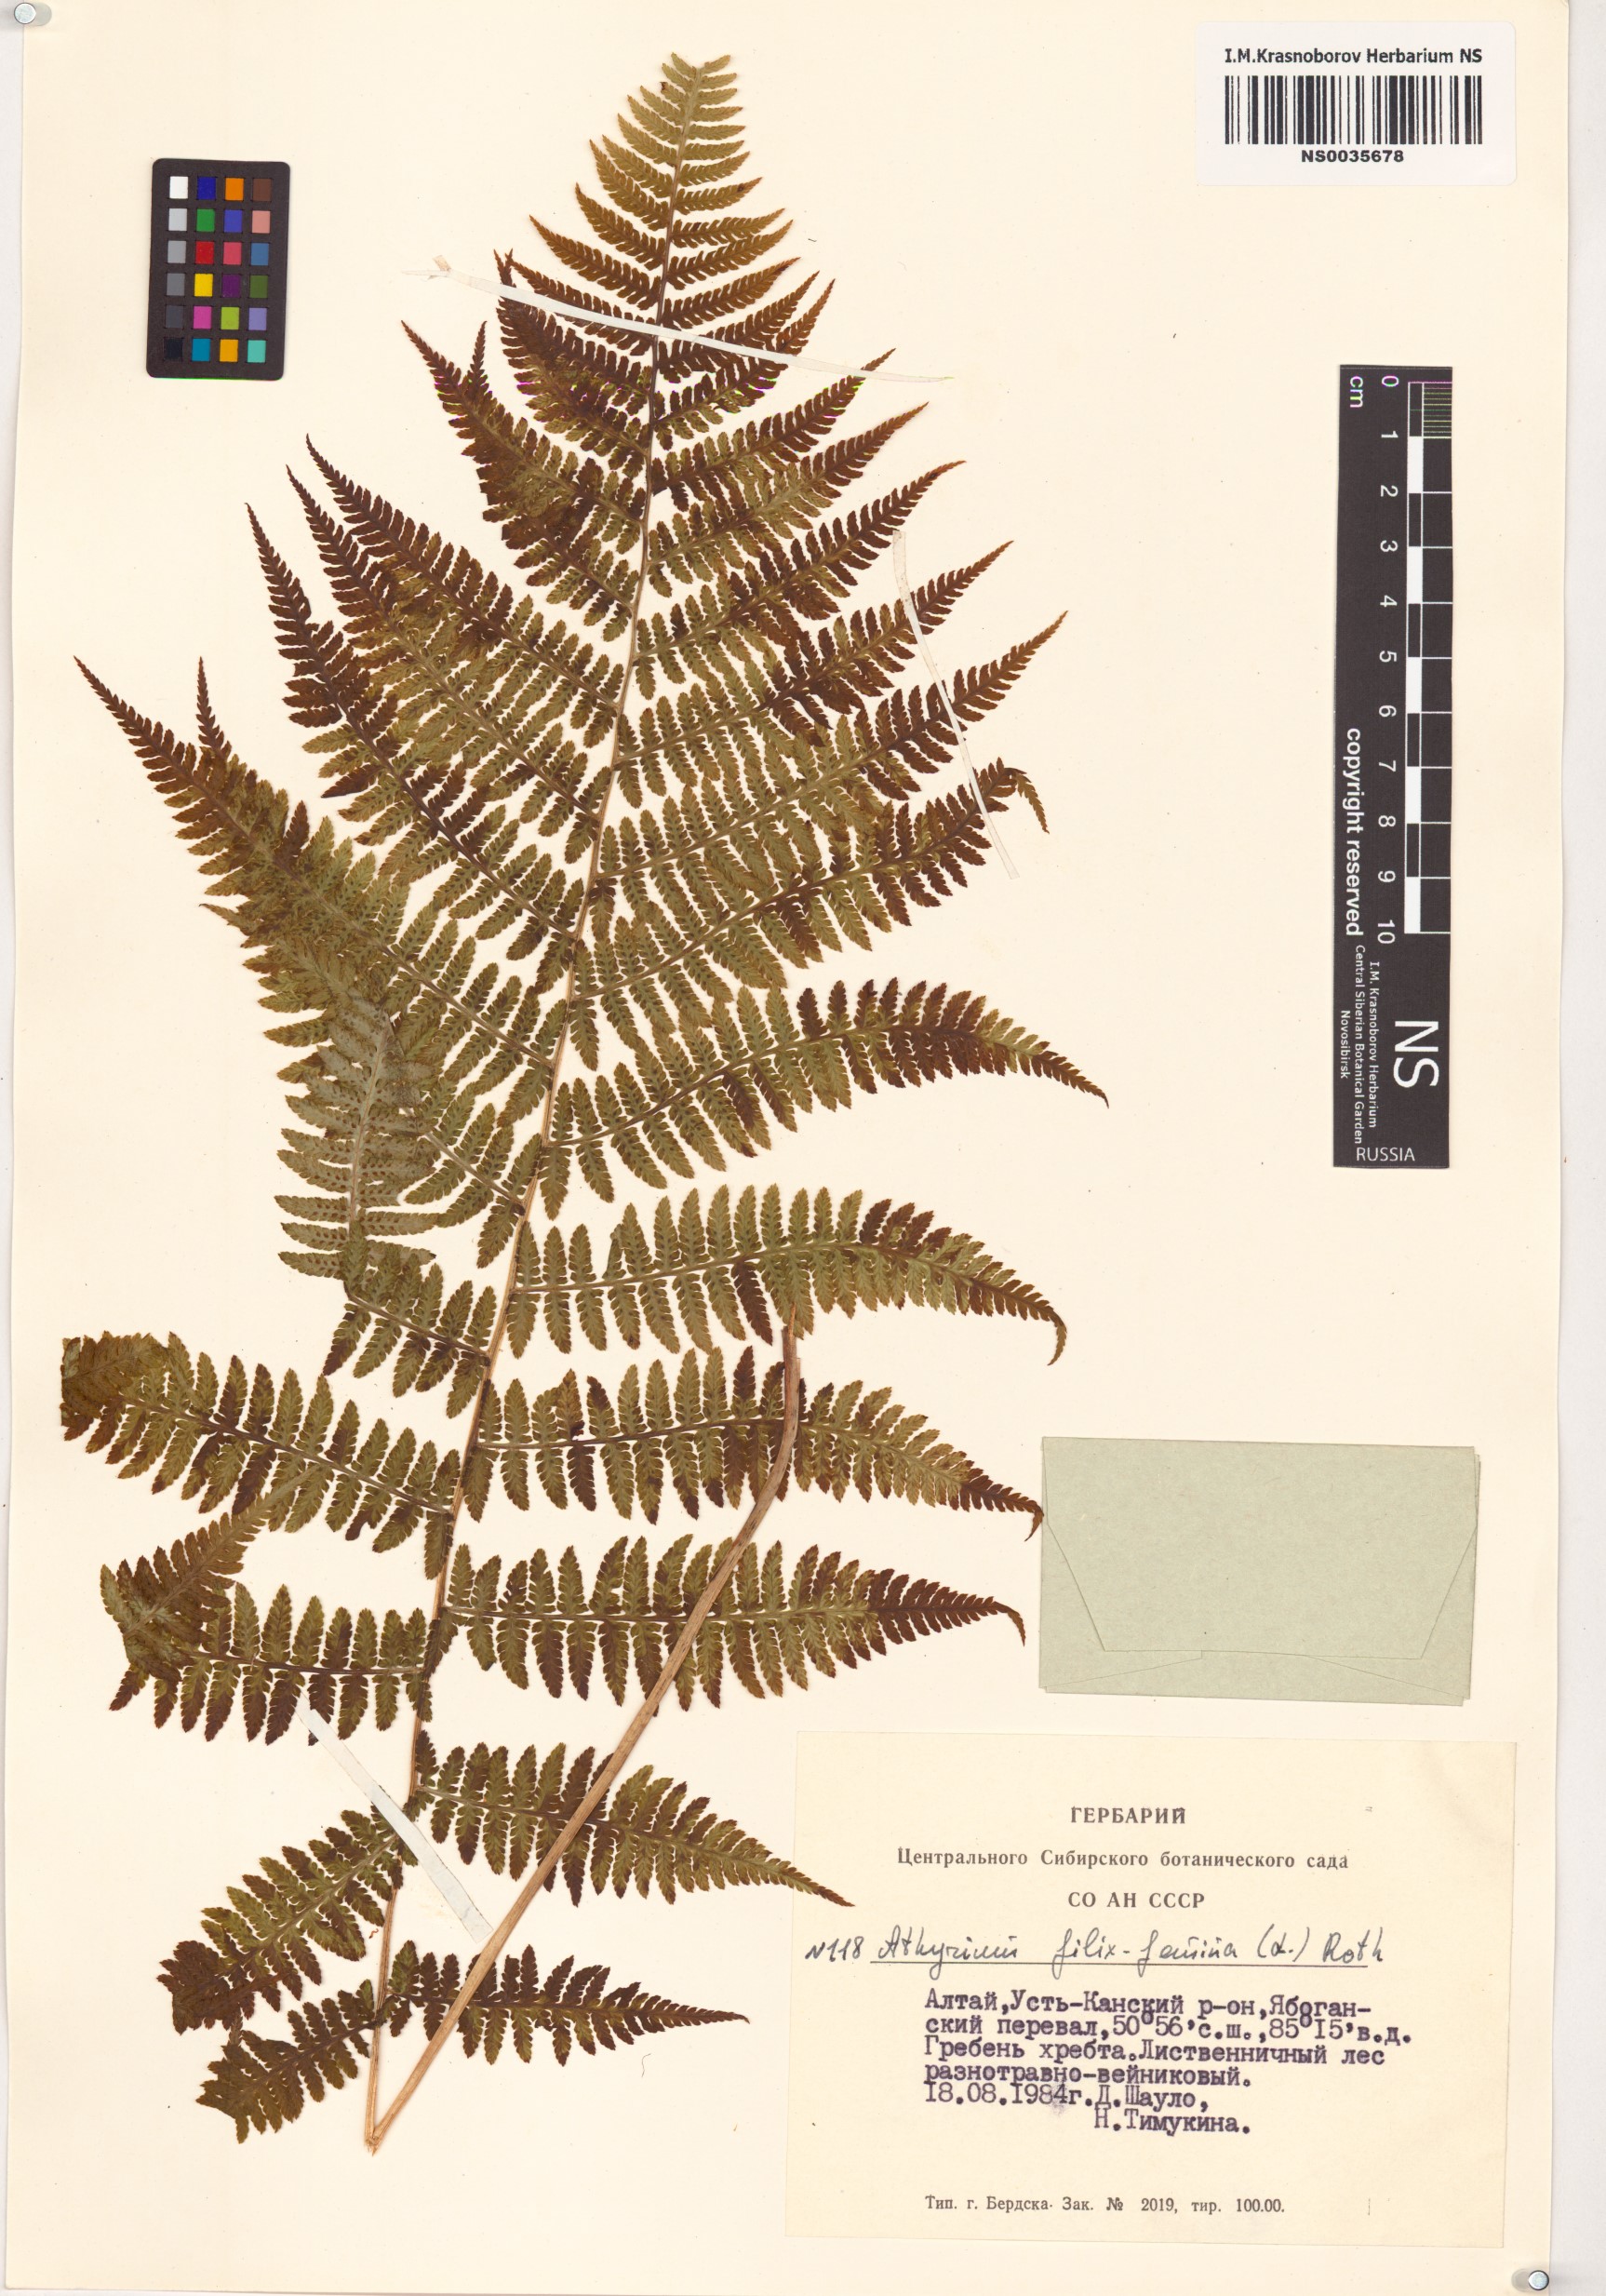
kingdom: Plantae
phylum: Tracheophyta
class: Polypodiopsida
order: Polypodiales
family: Athyriaceae
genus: Athyrium
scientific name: Athyrium filix-femina
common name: Lady fern
